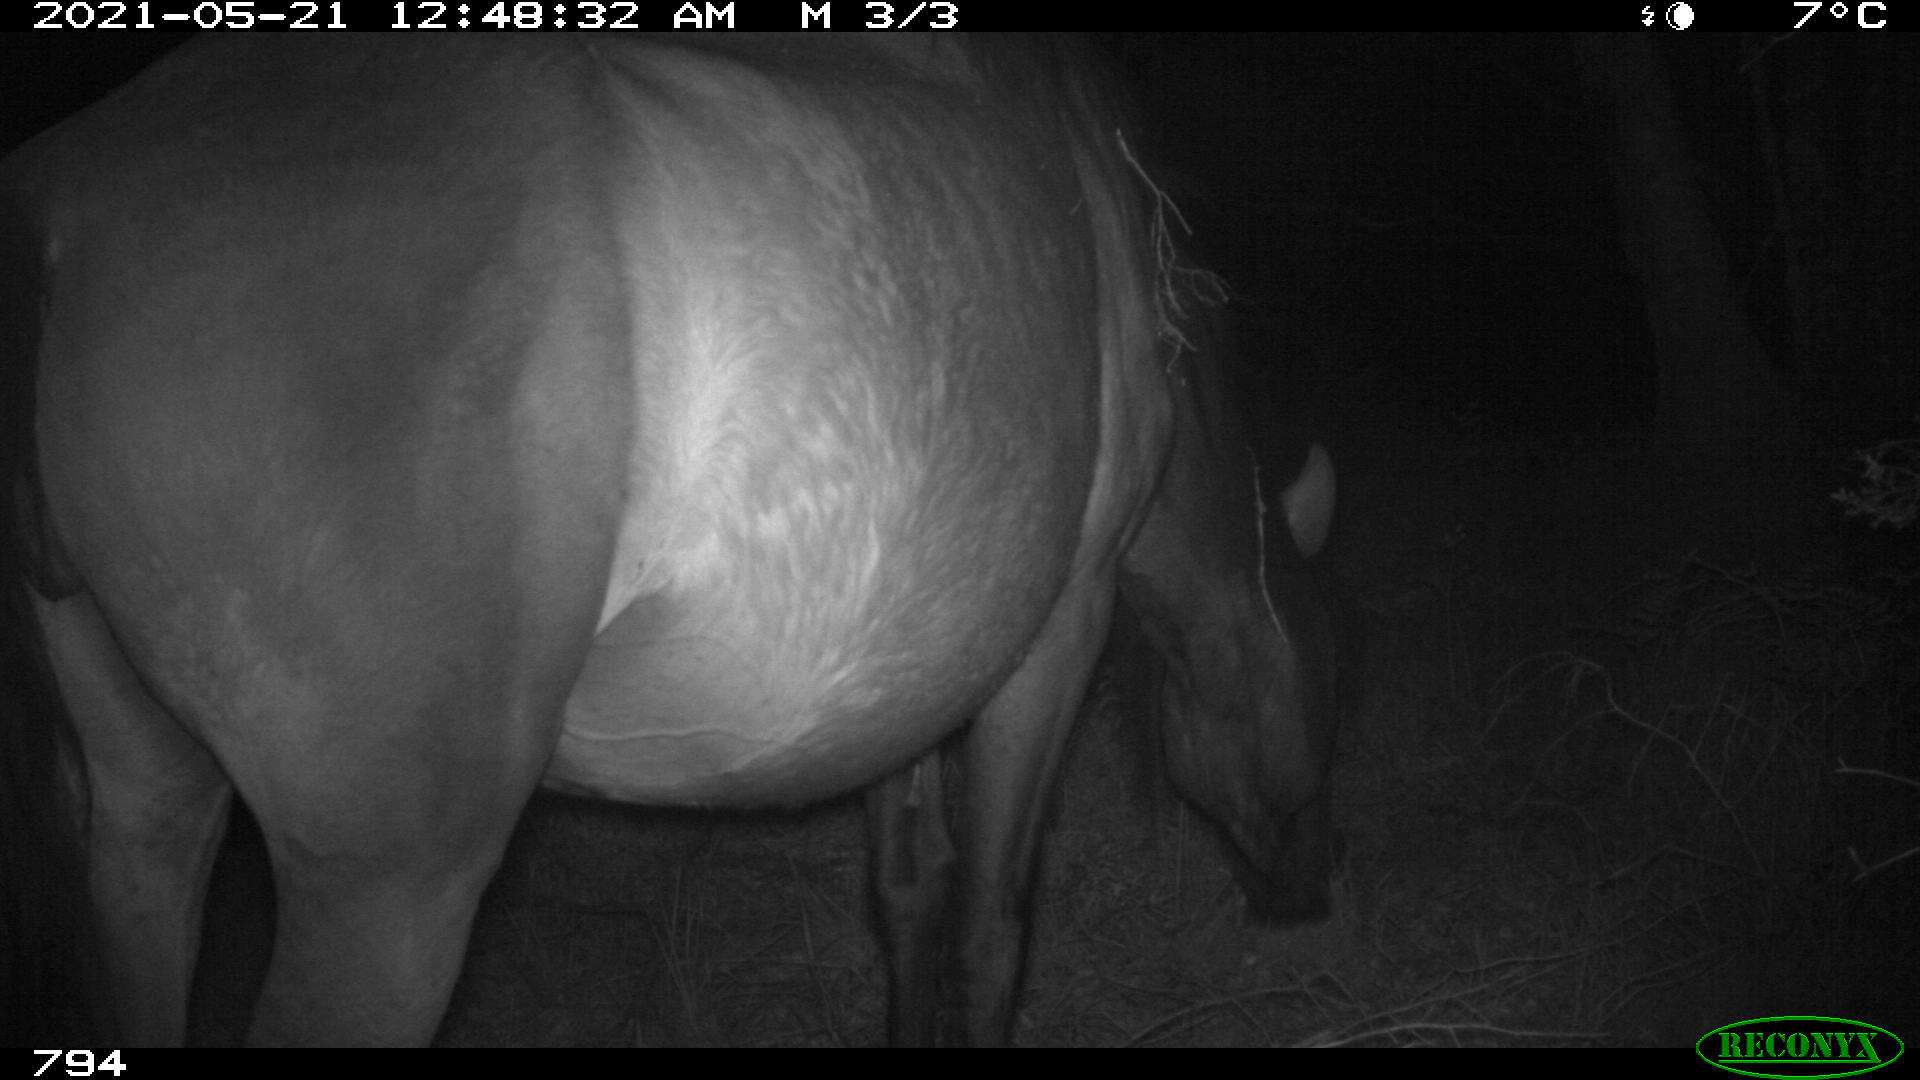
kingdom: Animalia
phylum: Chordata
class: Mammalia
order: Perissodactyla
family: Equidae
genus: Equus
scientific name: Equus caballus
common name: Horse
